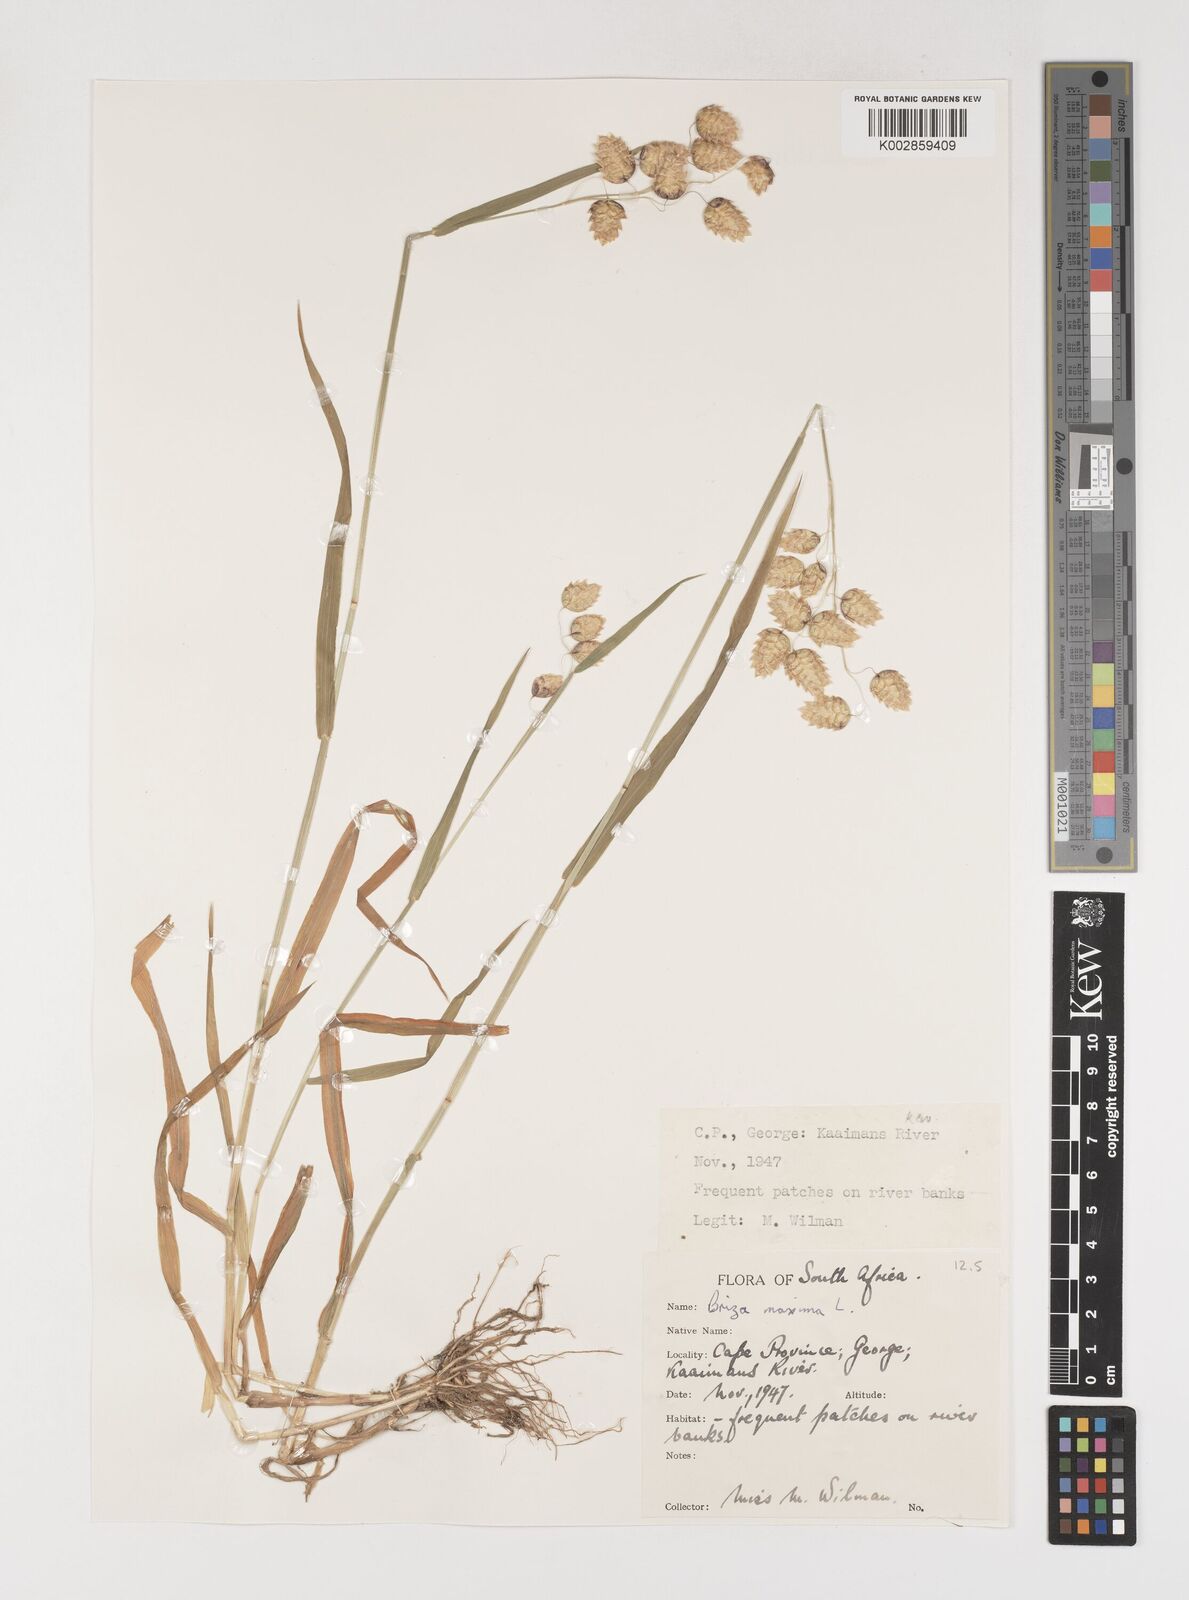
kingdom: Plantae
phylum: Tracheophyta
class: Liliopsida
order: Poales
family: Poaceae
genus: Briza
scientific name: Briza maxima
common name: Big quakinggrass
